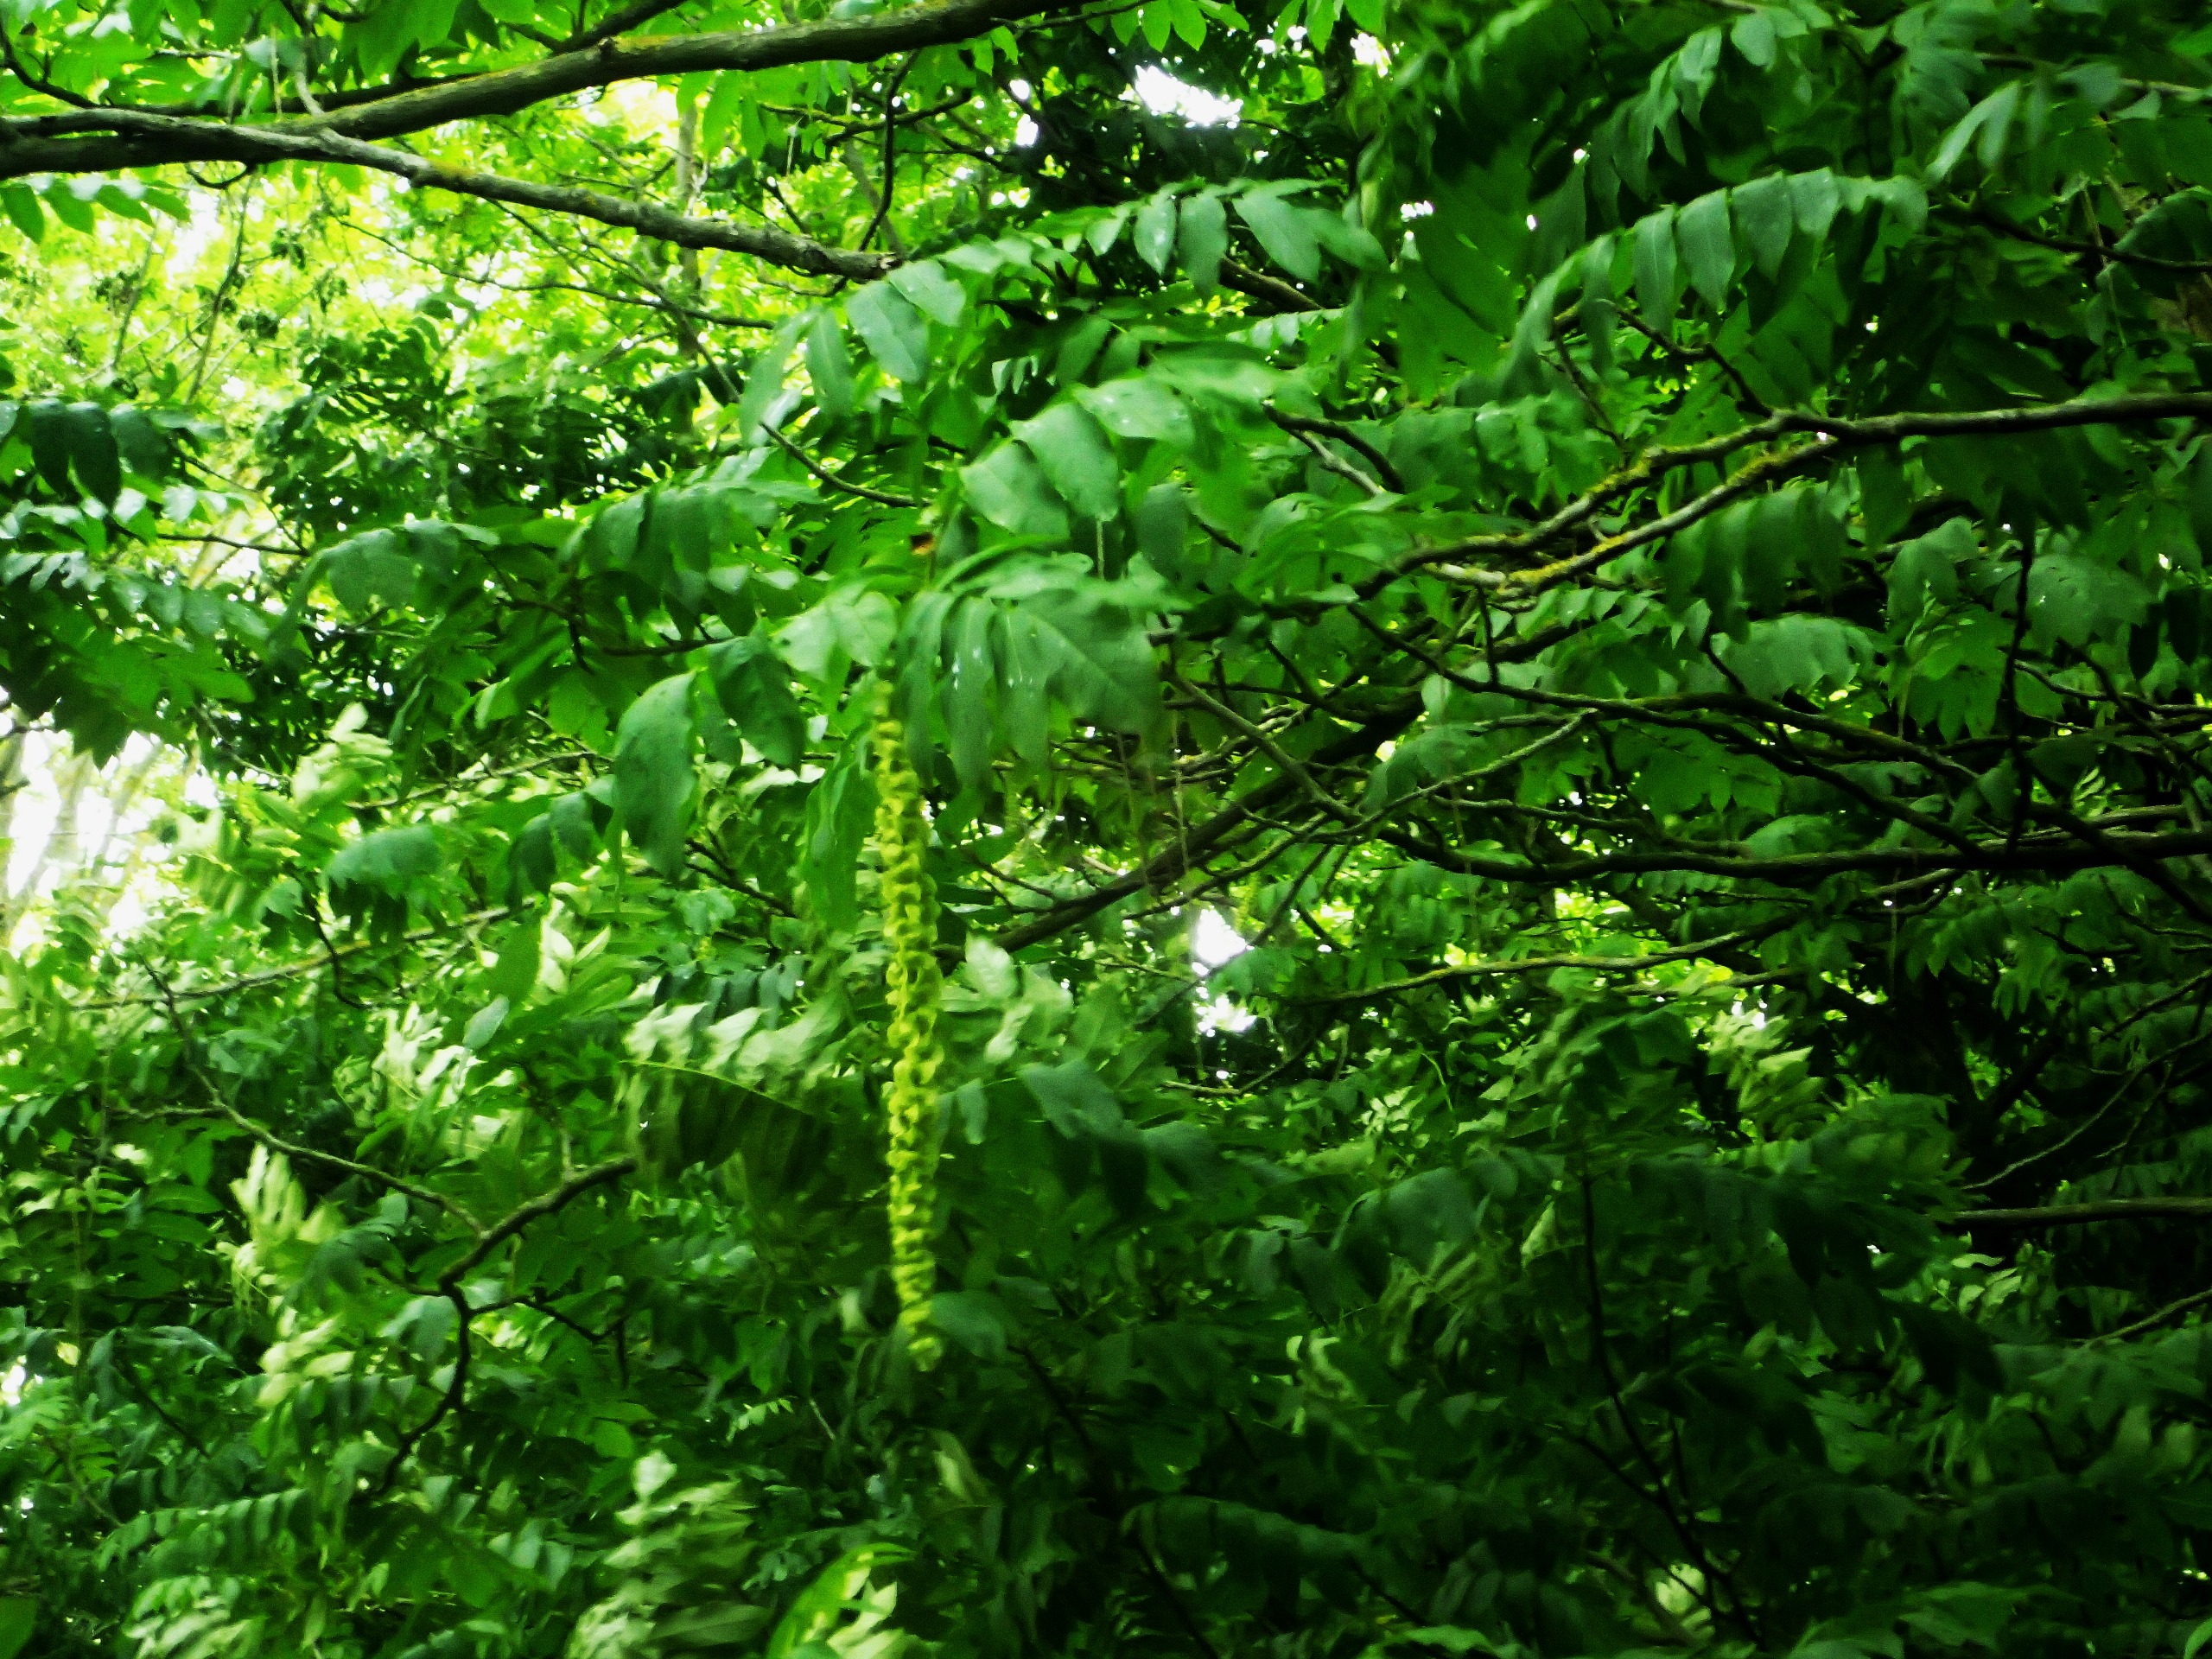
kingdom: Plantae
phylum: Tracheophyta
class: Magnoliopsida
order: Fagales
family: Juglandaceae
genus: Pterocarya
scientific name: Pterocarya fraxinifolia
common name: Kaukasisk vingevalnød
